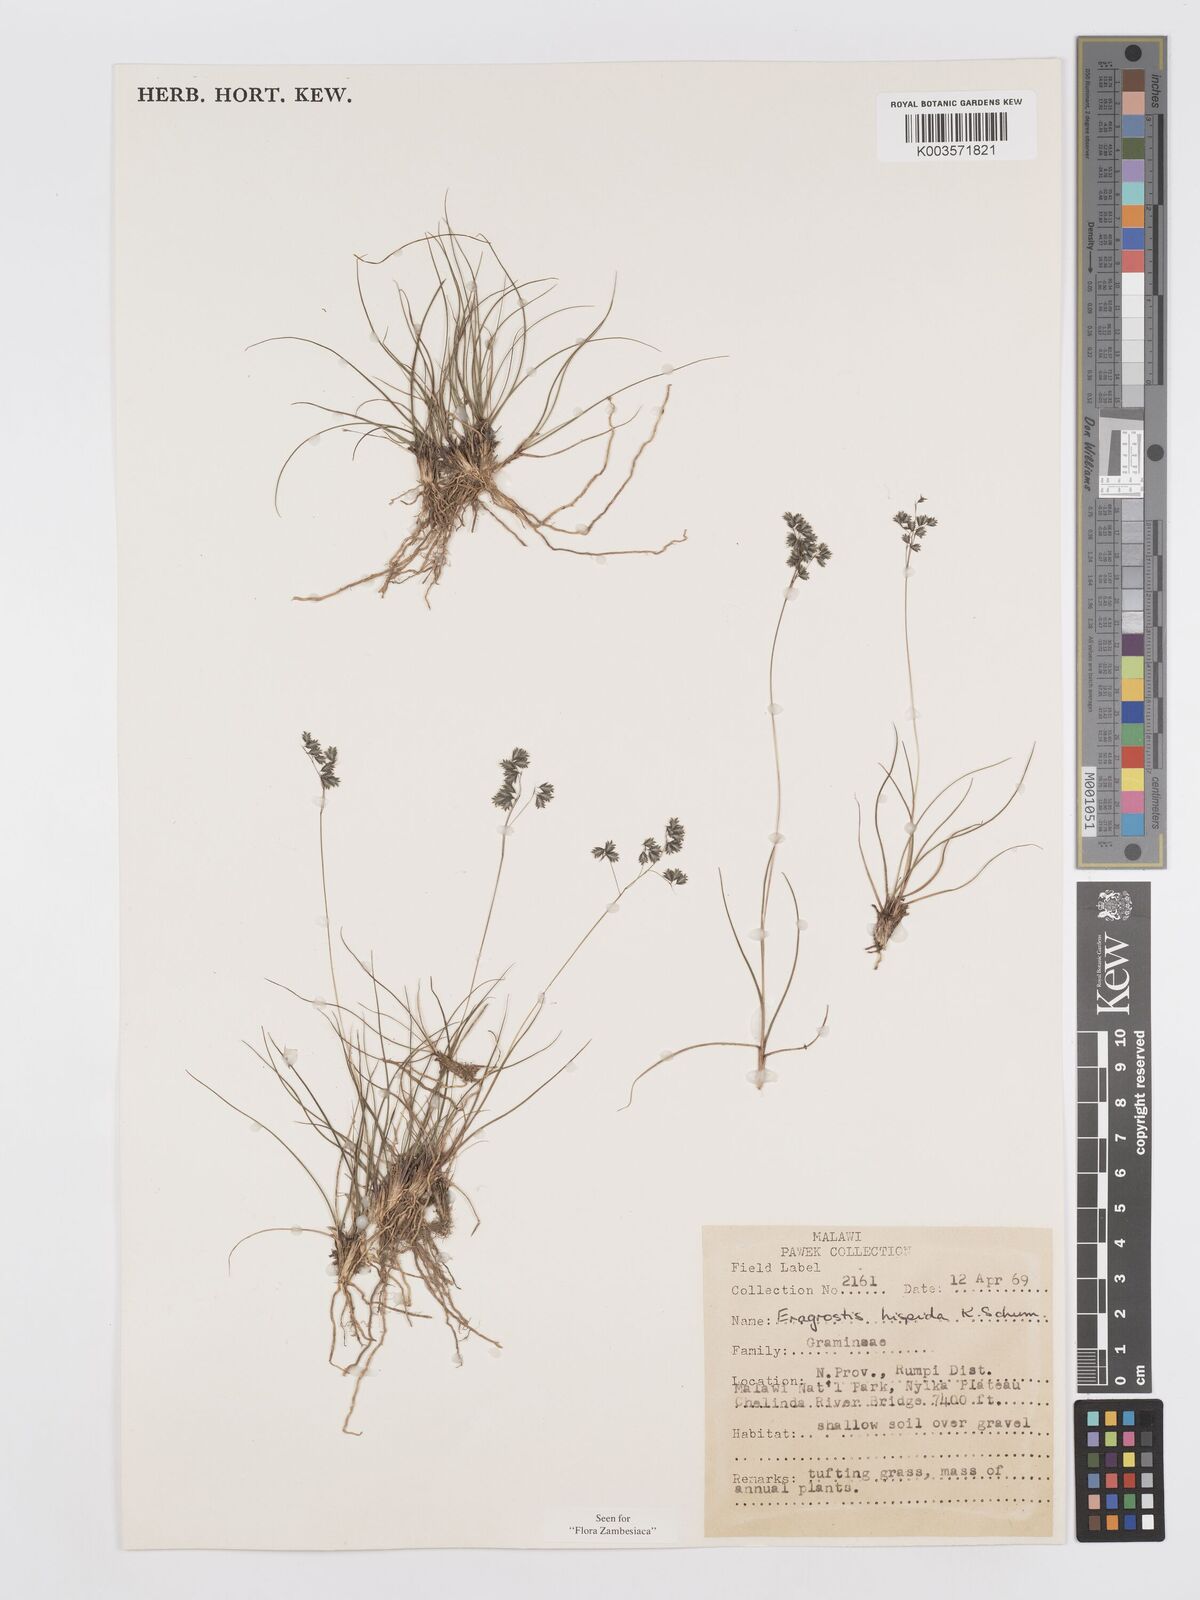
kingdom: Plantae
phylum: Tracheophyta
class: Liliopsida
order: Poales
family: Poaceae
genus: Eragrostis
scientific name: Eragrostis hispida
